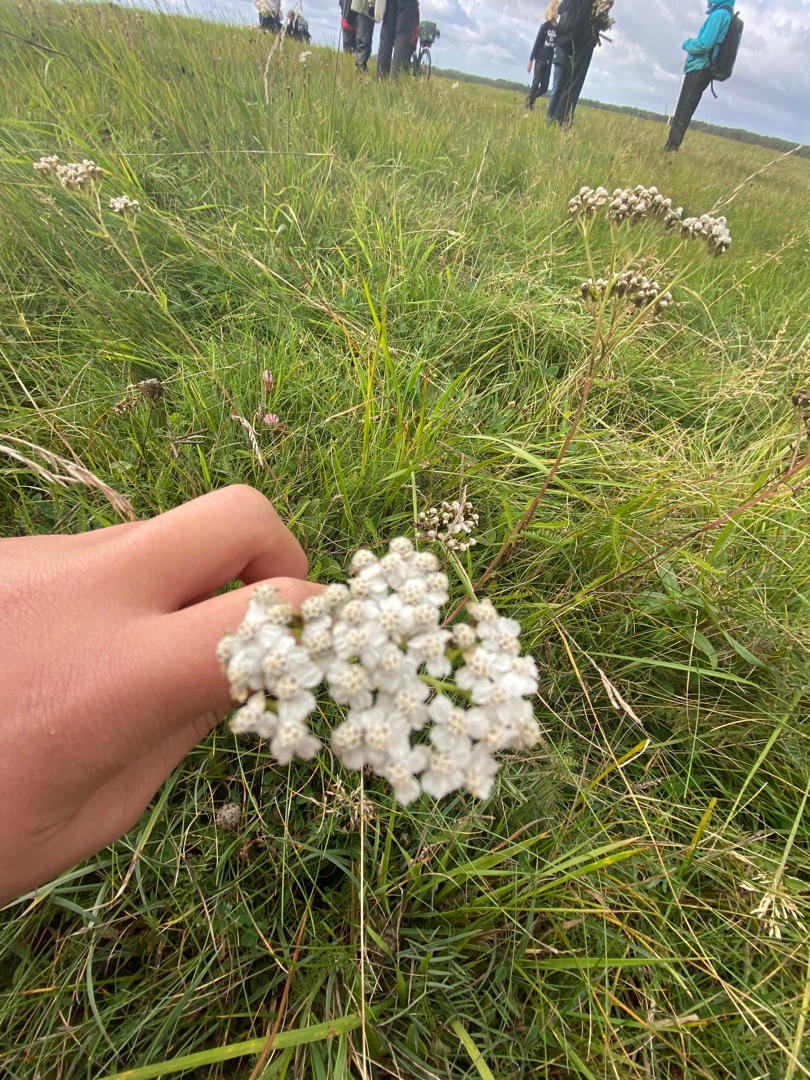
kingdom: Plantae
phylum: Tracheophyta
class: Magnoliopsida
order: Asterales
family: Asteraceae
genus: Achillea
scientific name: Achillea millefolium
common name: Almindelig røllike
